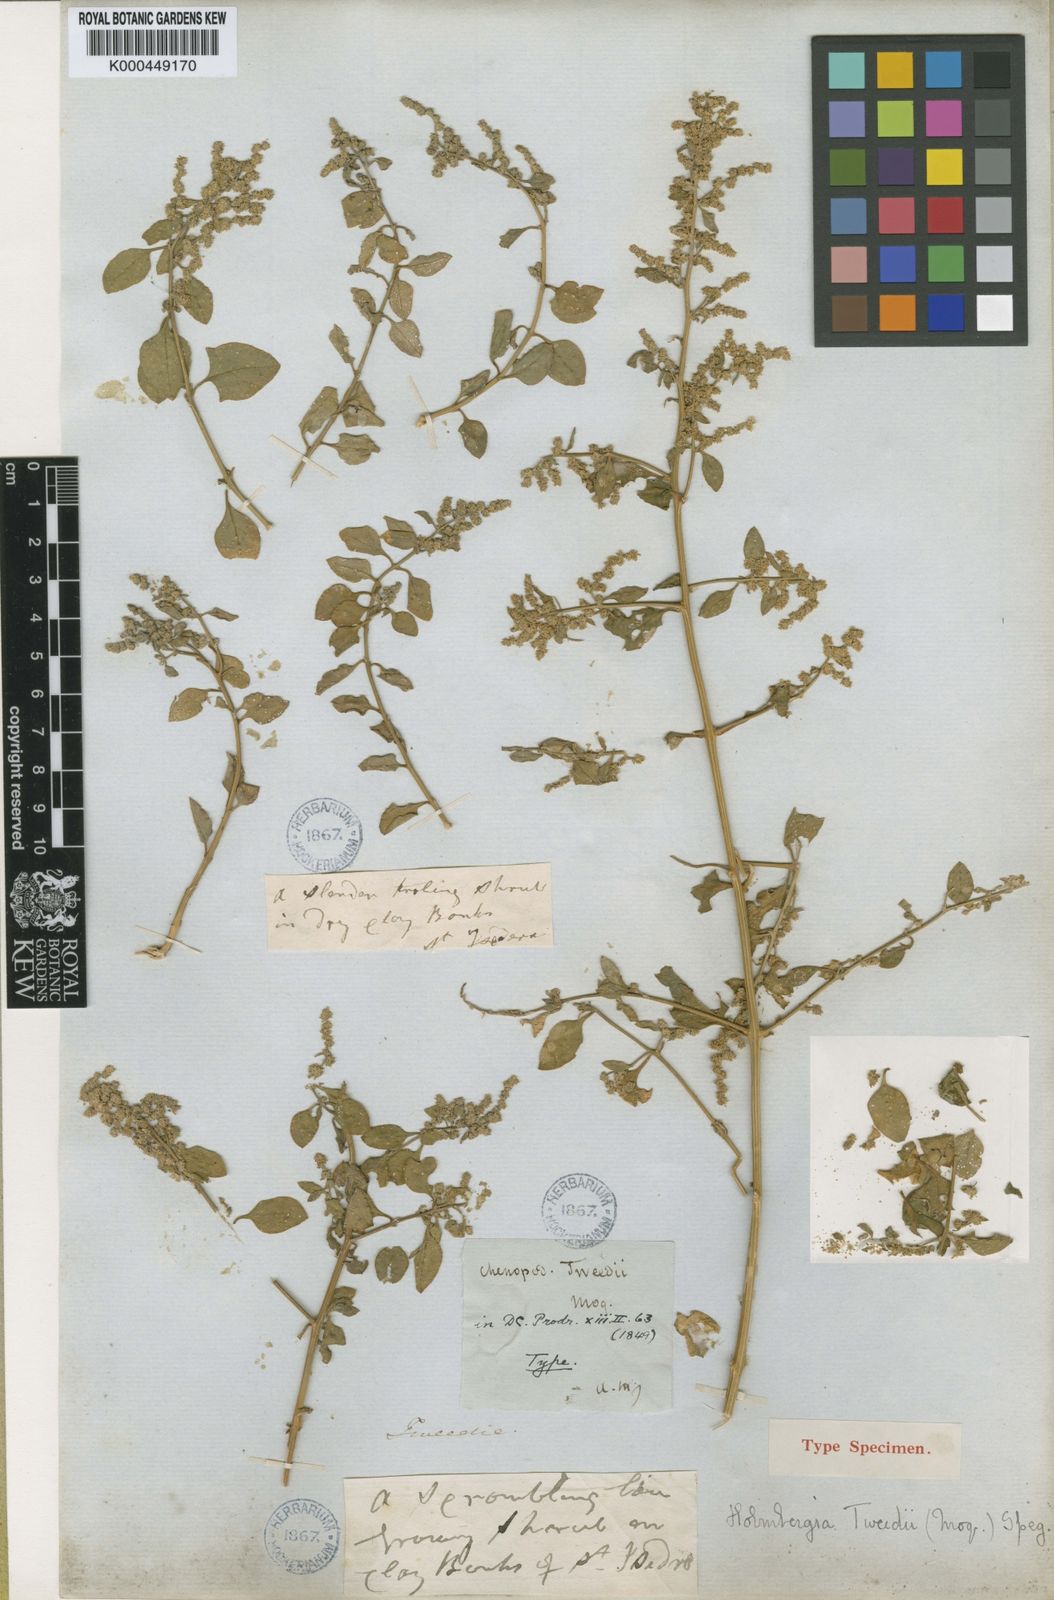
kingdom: Plantae
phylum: Tracheophyta
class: Magnoliopsida
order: Caryophyllales
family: Amaranthaceae
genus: Holmbergia
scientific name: Holmbergia tweedii
